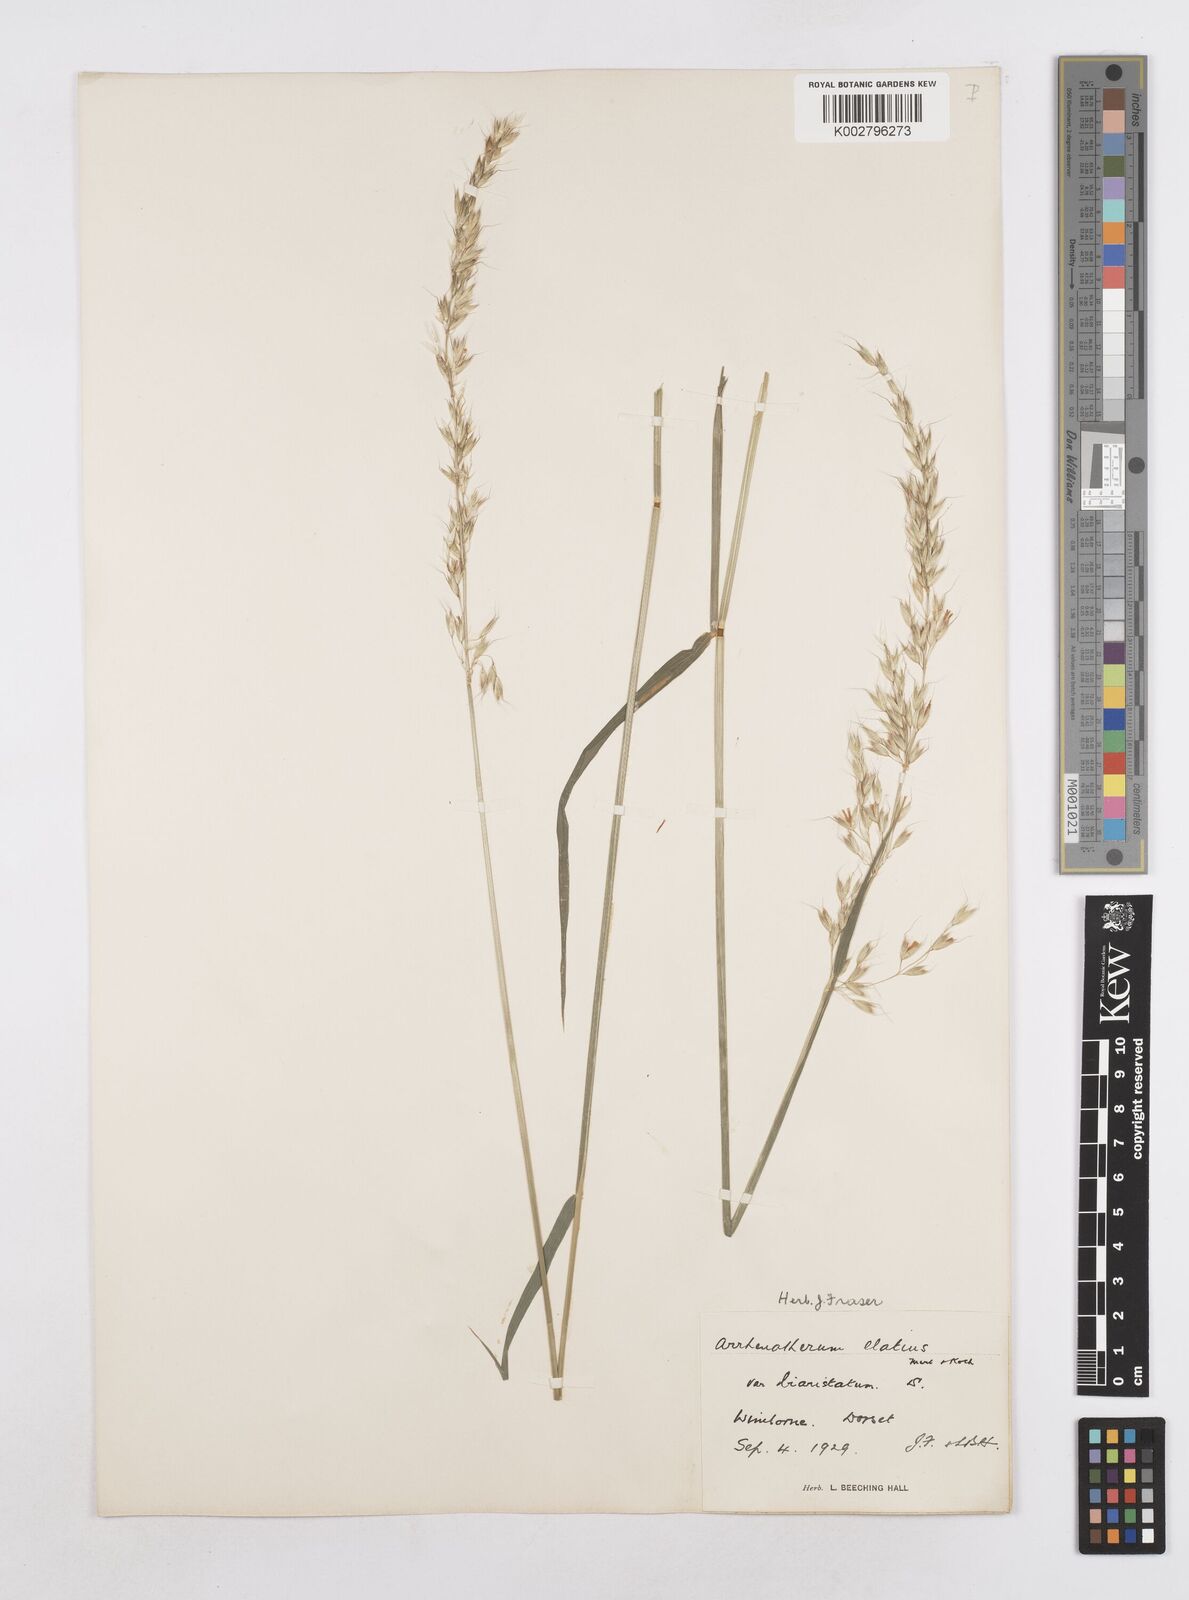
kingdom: Plantae
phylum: Tracheophyta
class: Liliopsida
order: Poales
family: Poaceae
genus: Arrhenatherum
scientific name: Arrhenatherum elatius
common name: Tall oatgrass
